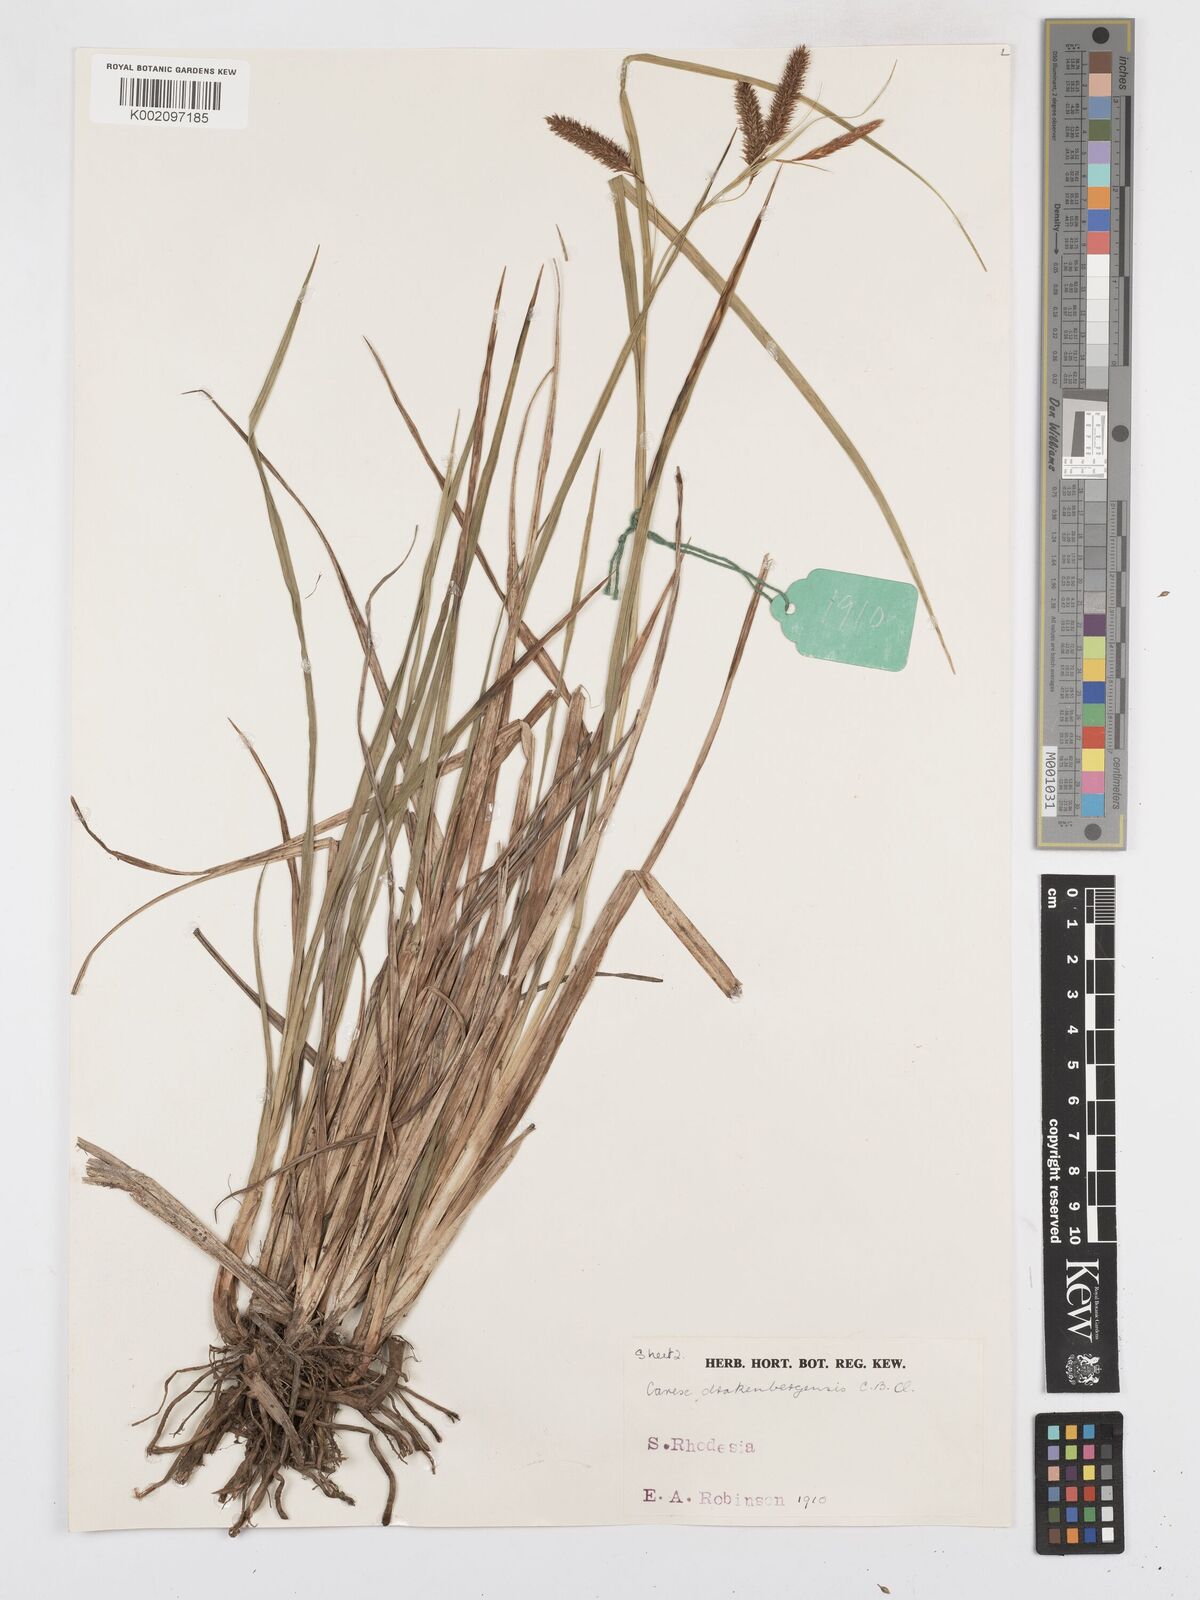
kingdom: Plantae
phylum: Tracheophyta
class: Liliopsida
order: Poales
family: Cyperaceae
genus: Carex
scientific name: Carex cognata
